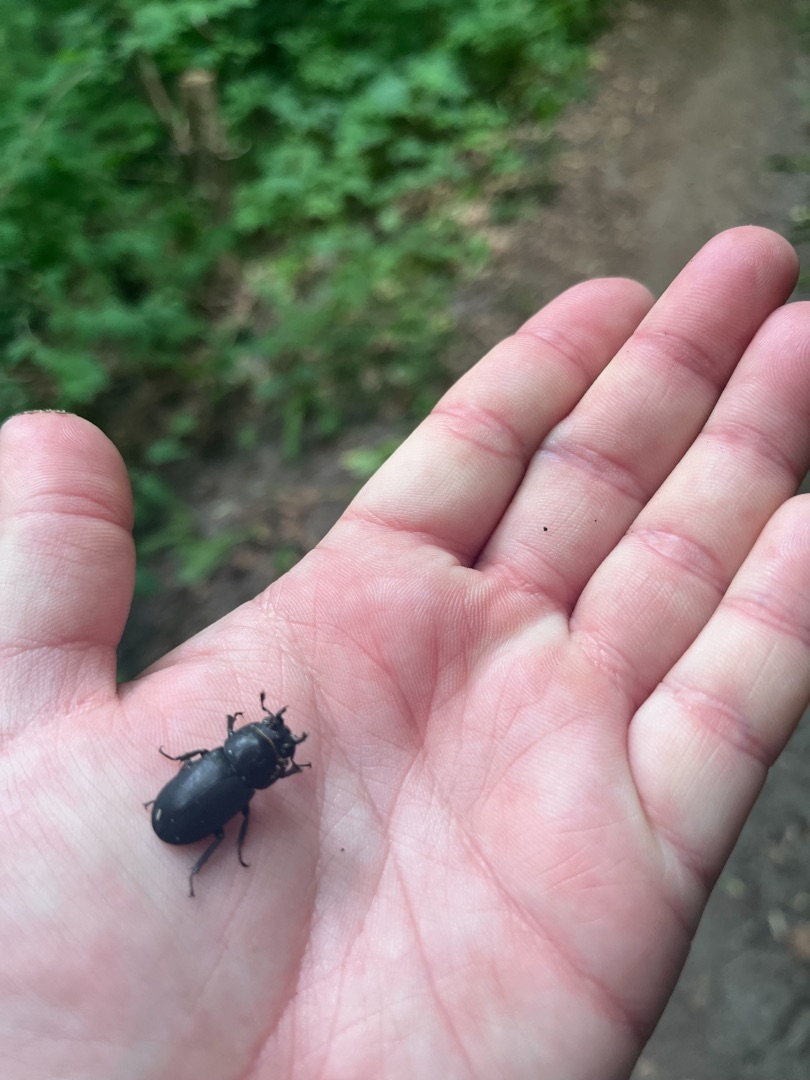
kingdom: Animalia
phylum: Arthropoda
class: Insecta
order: Coleoptera
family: Lucanidae
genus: Dorcus
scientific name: Dorcus parallelipipedus
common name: Bøghjort
